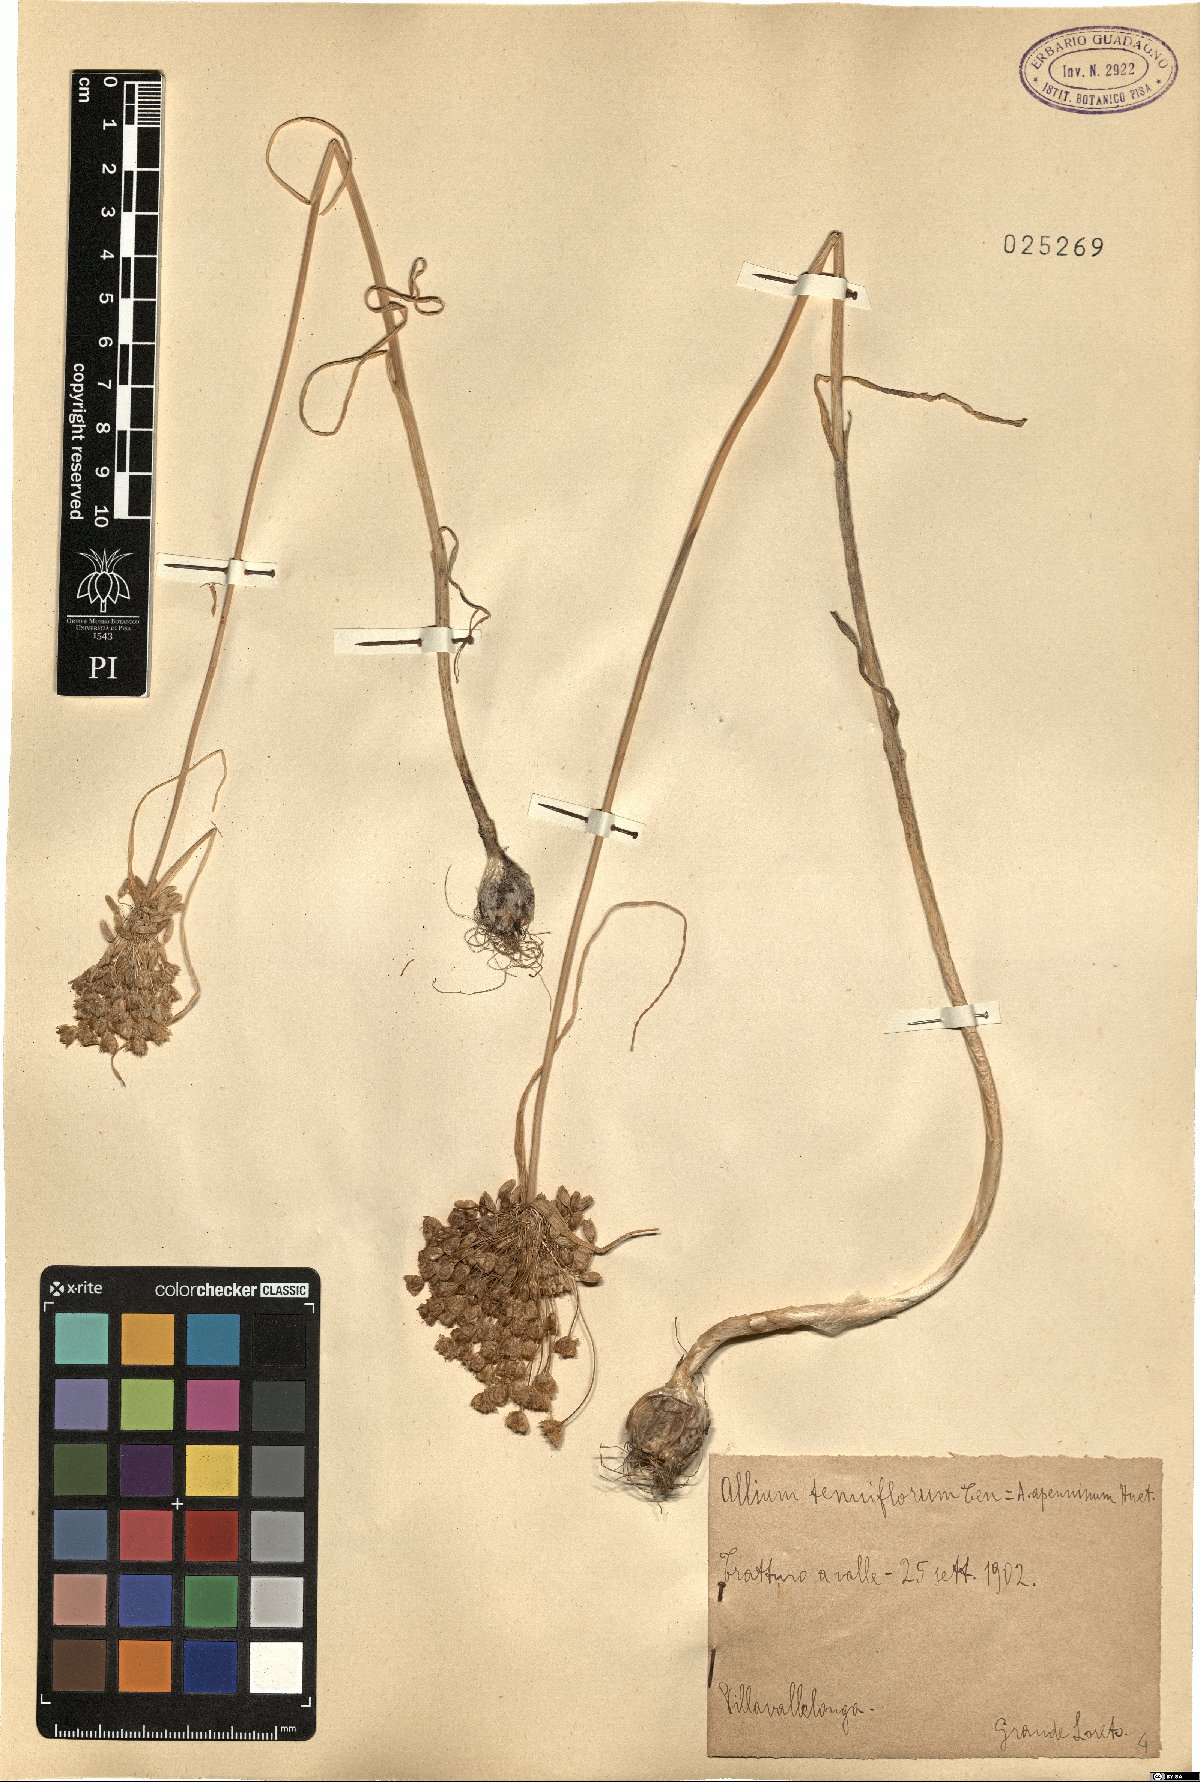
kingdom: Plantae
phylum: Tracheophyta
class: Liliopsida
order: Asparagales
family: Amaryllidaceae
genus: Allium
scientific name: Allium tenuiflorum
